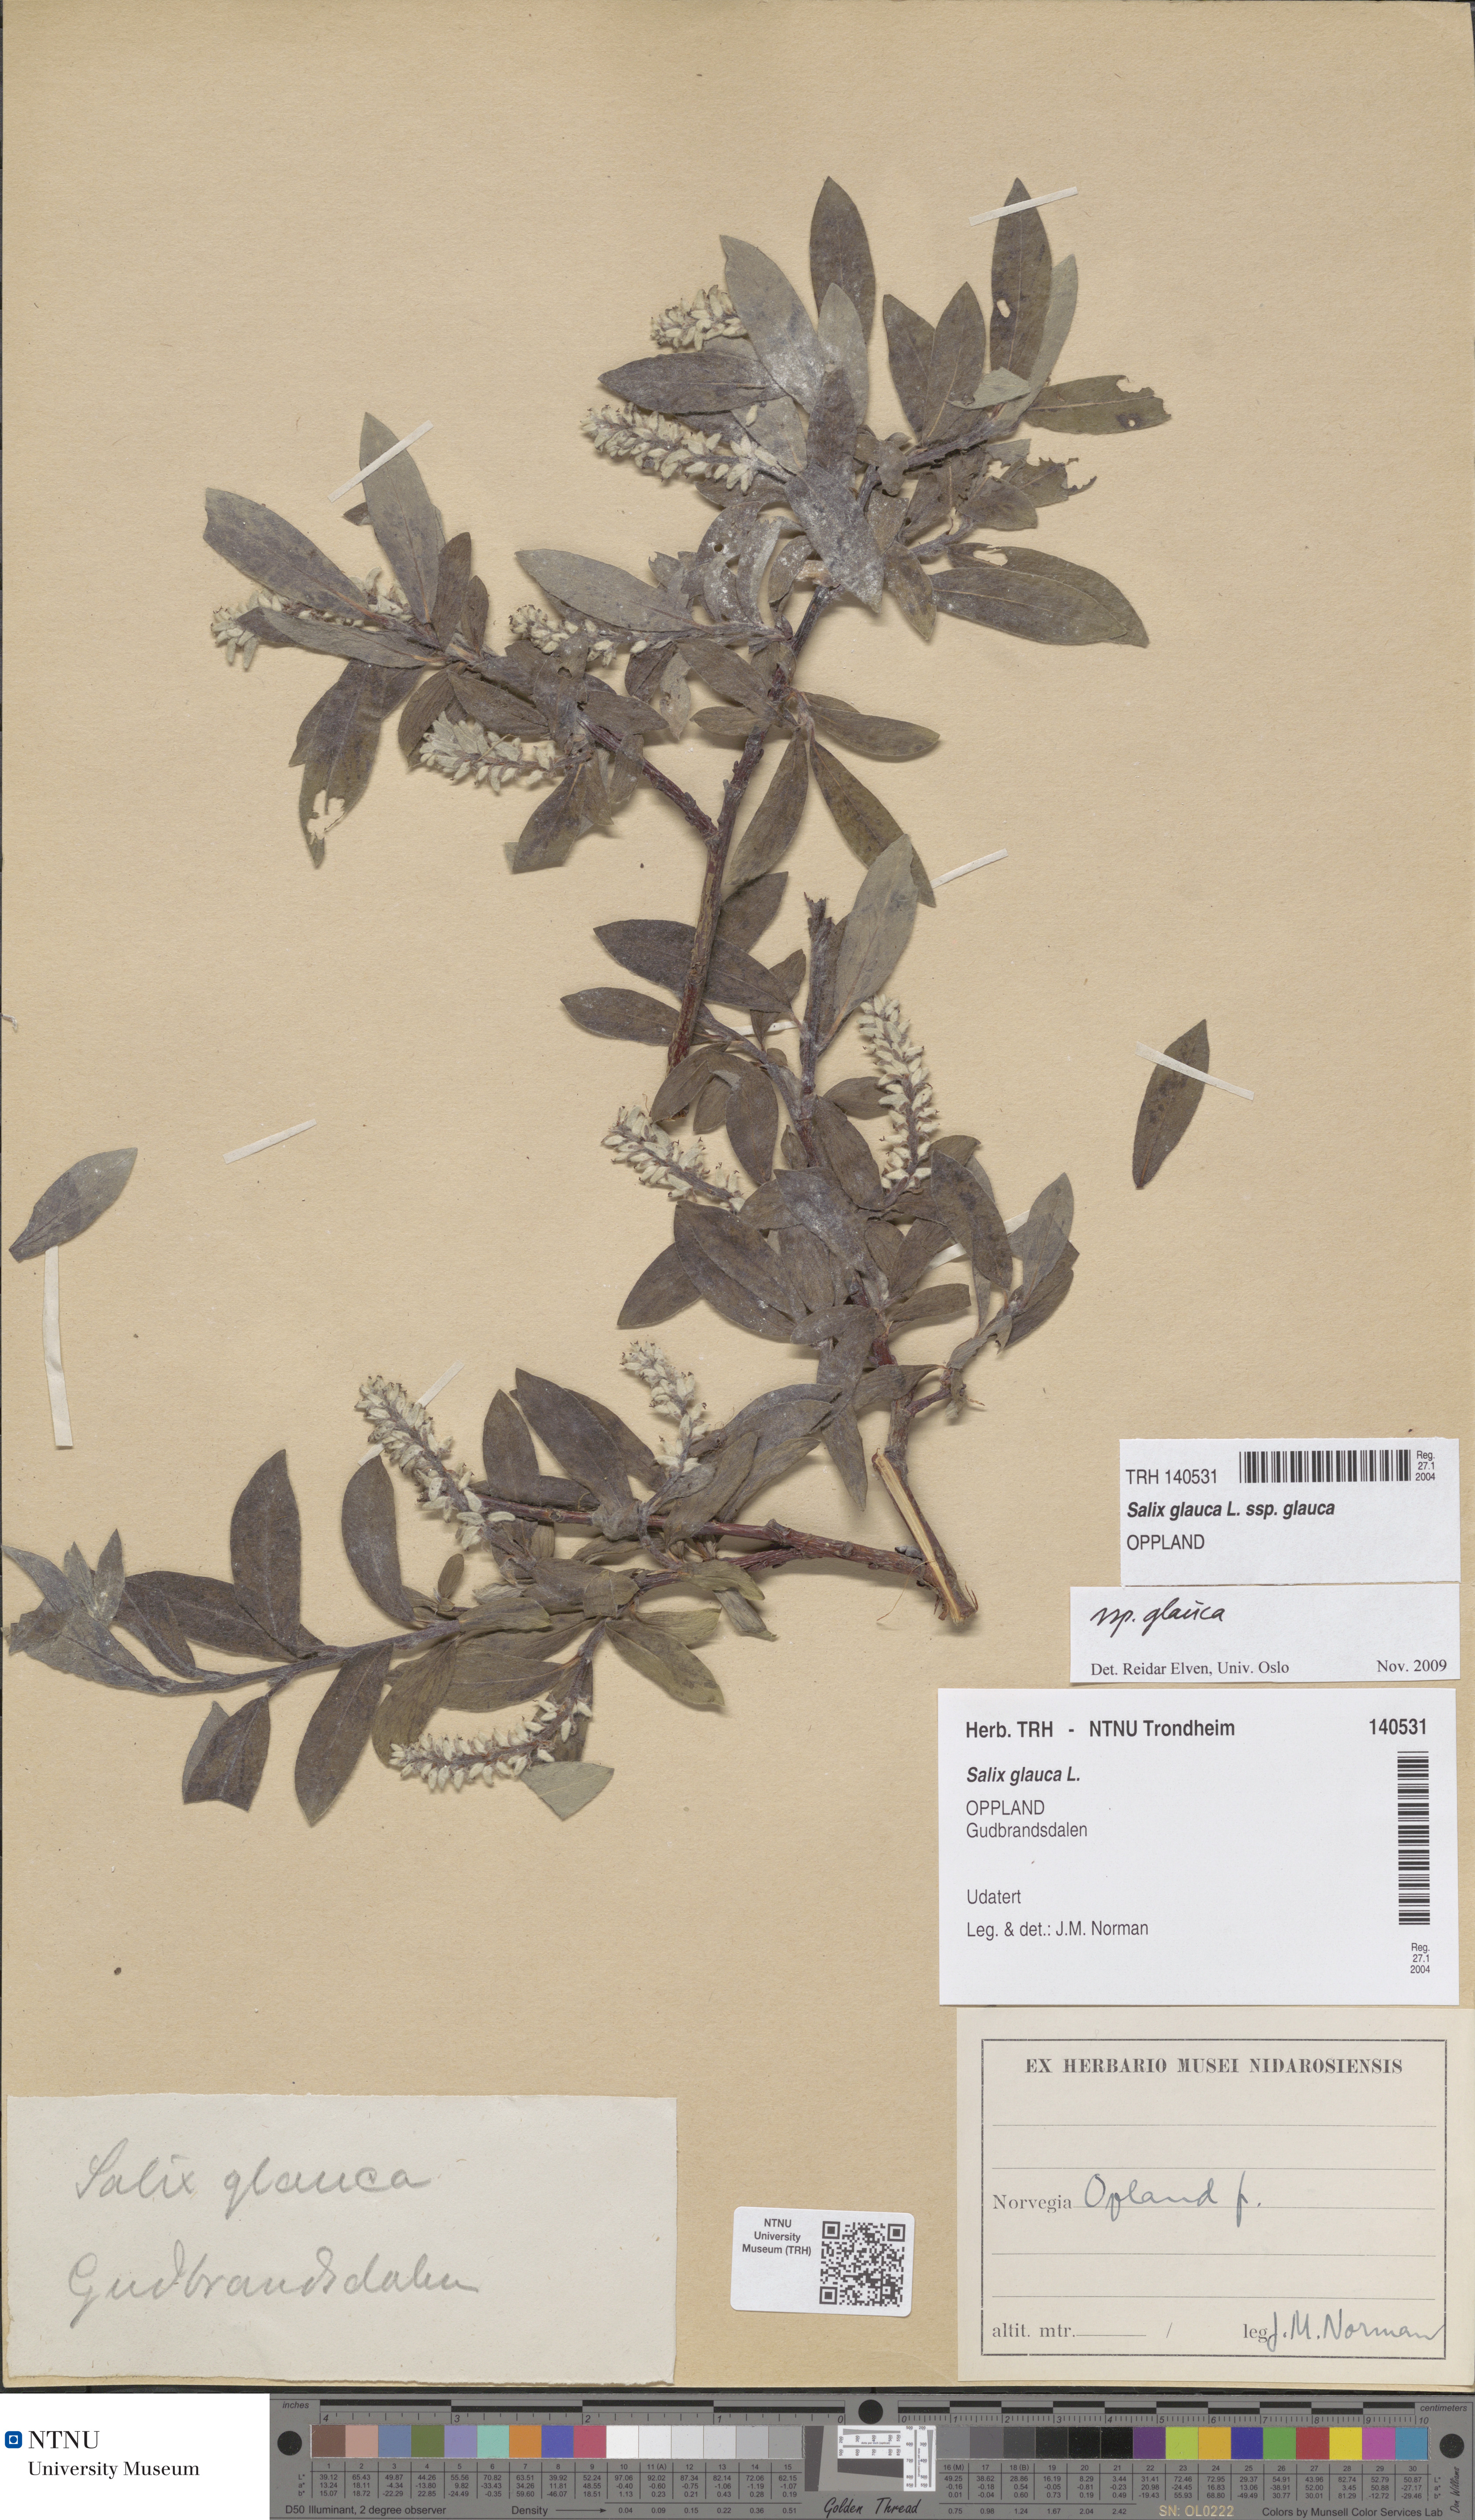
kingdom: Plantae
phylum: Tracheophyta
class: Magnoliopsida
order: Malpighiales
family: Salicaceae
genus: Salix
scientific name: Salix glauca
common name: Glaucous willow
